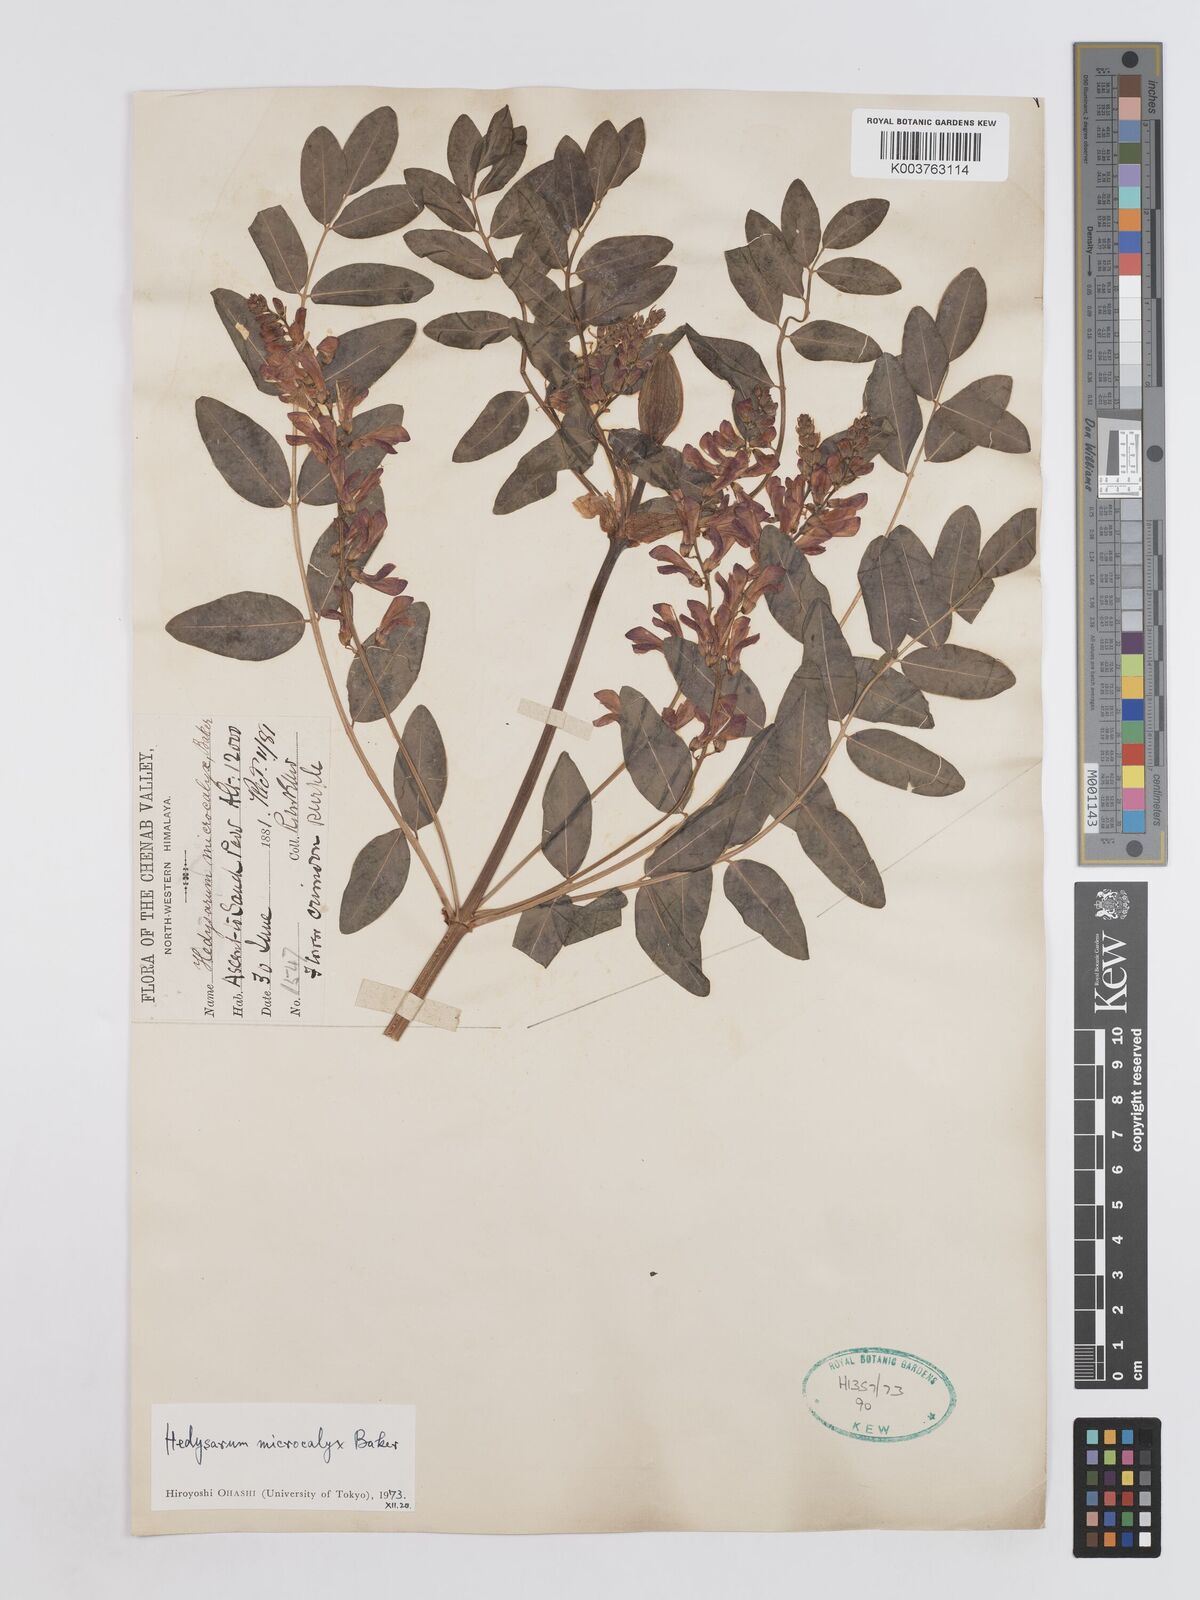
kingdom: Plantae
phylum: Tracheophyta
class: Magnoliopsida
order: Fabales
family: Fabaceae
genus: Hedysarum
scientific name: Hedysarum microcalyx
